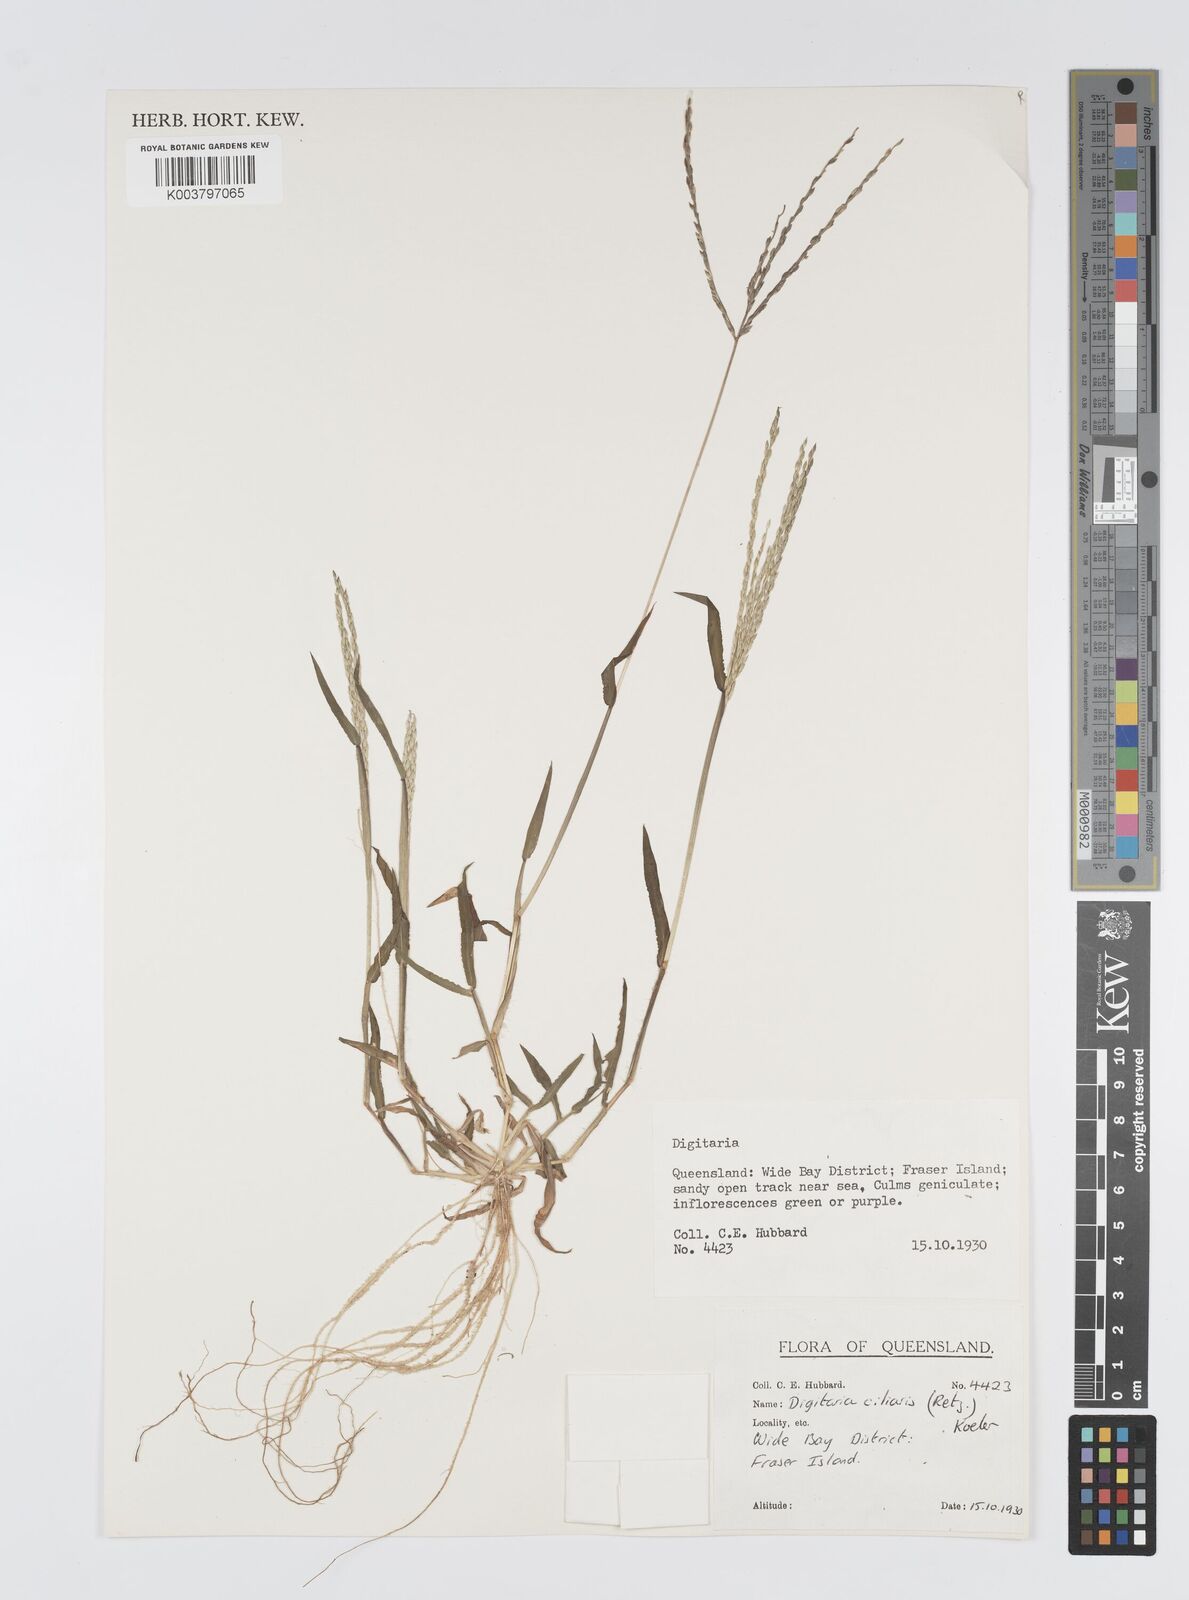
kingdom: Plantae
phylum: Tracheophyta
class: Liliopsida
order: Poales
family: Poaceae
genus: Digitaria
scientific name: Digitaria ciliaris
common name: Tropical finger-grass
